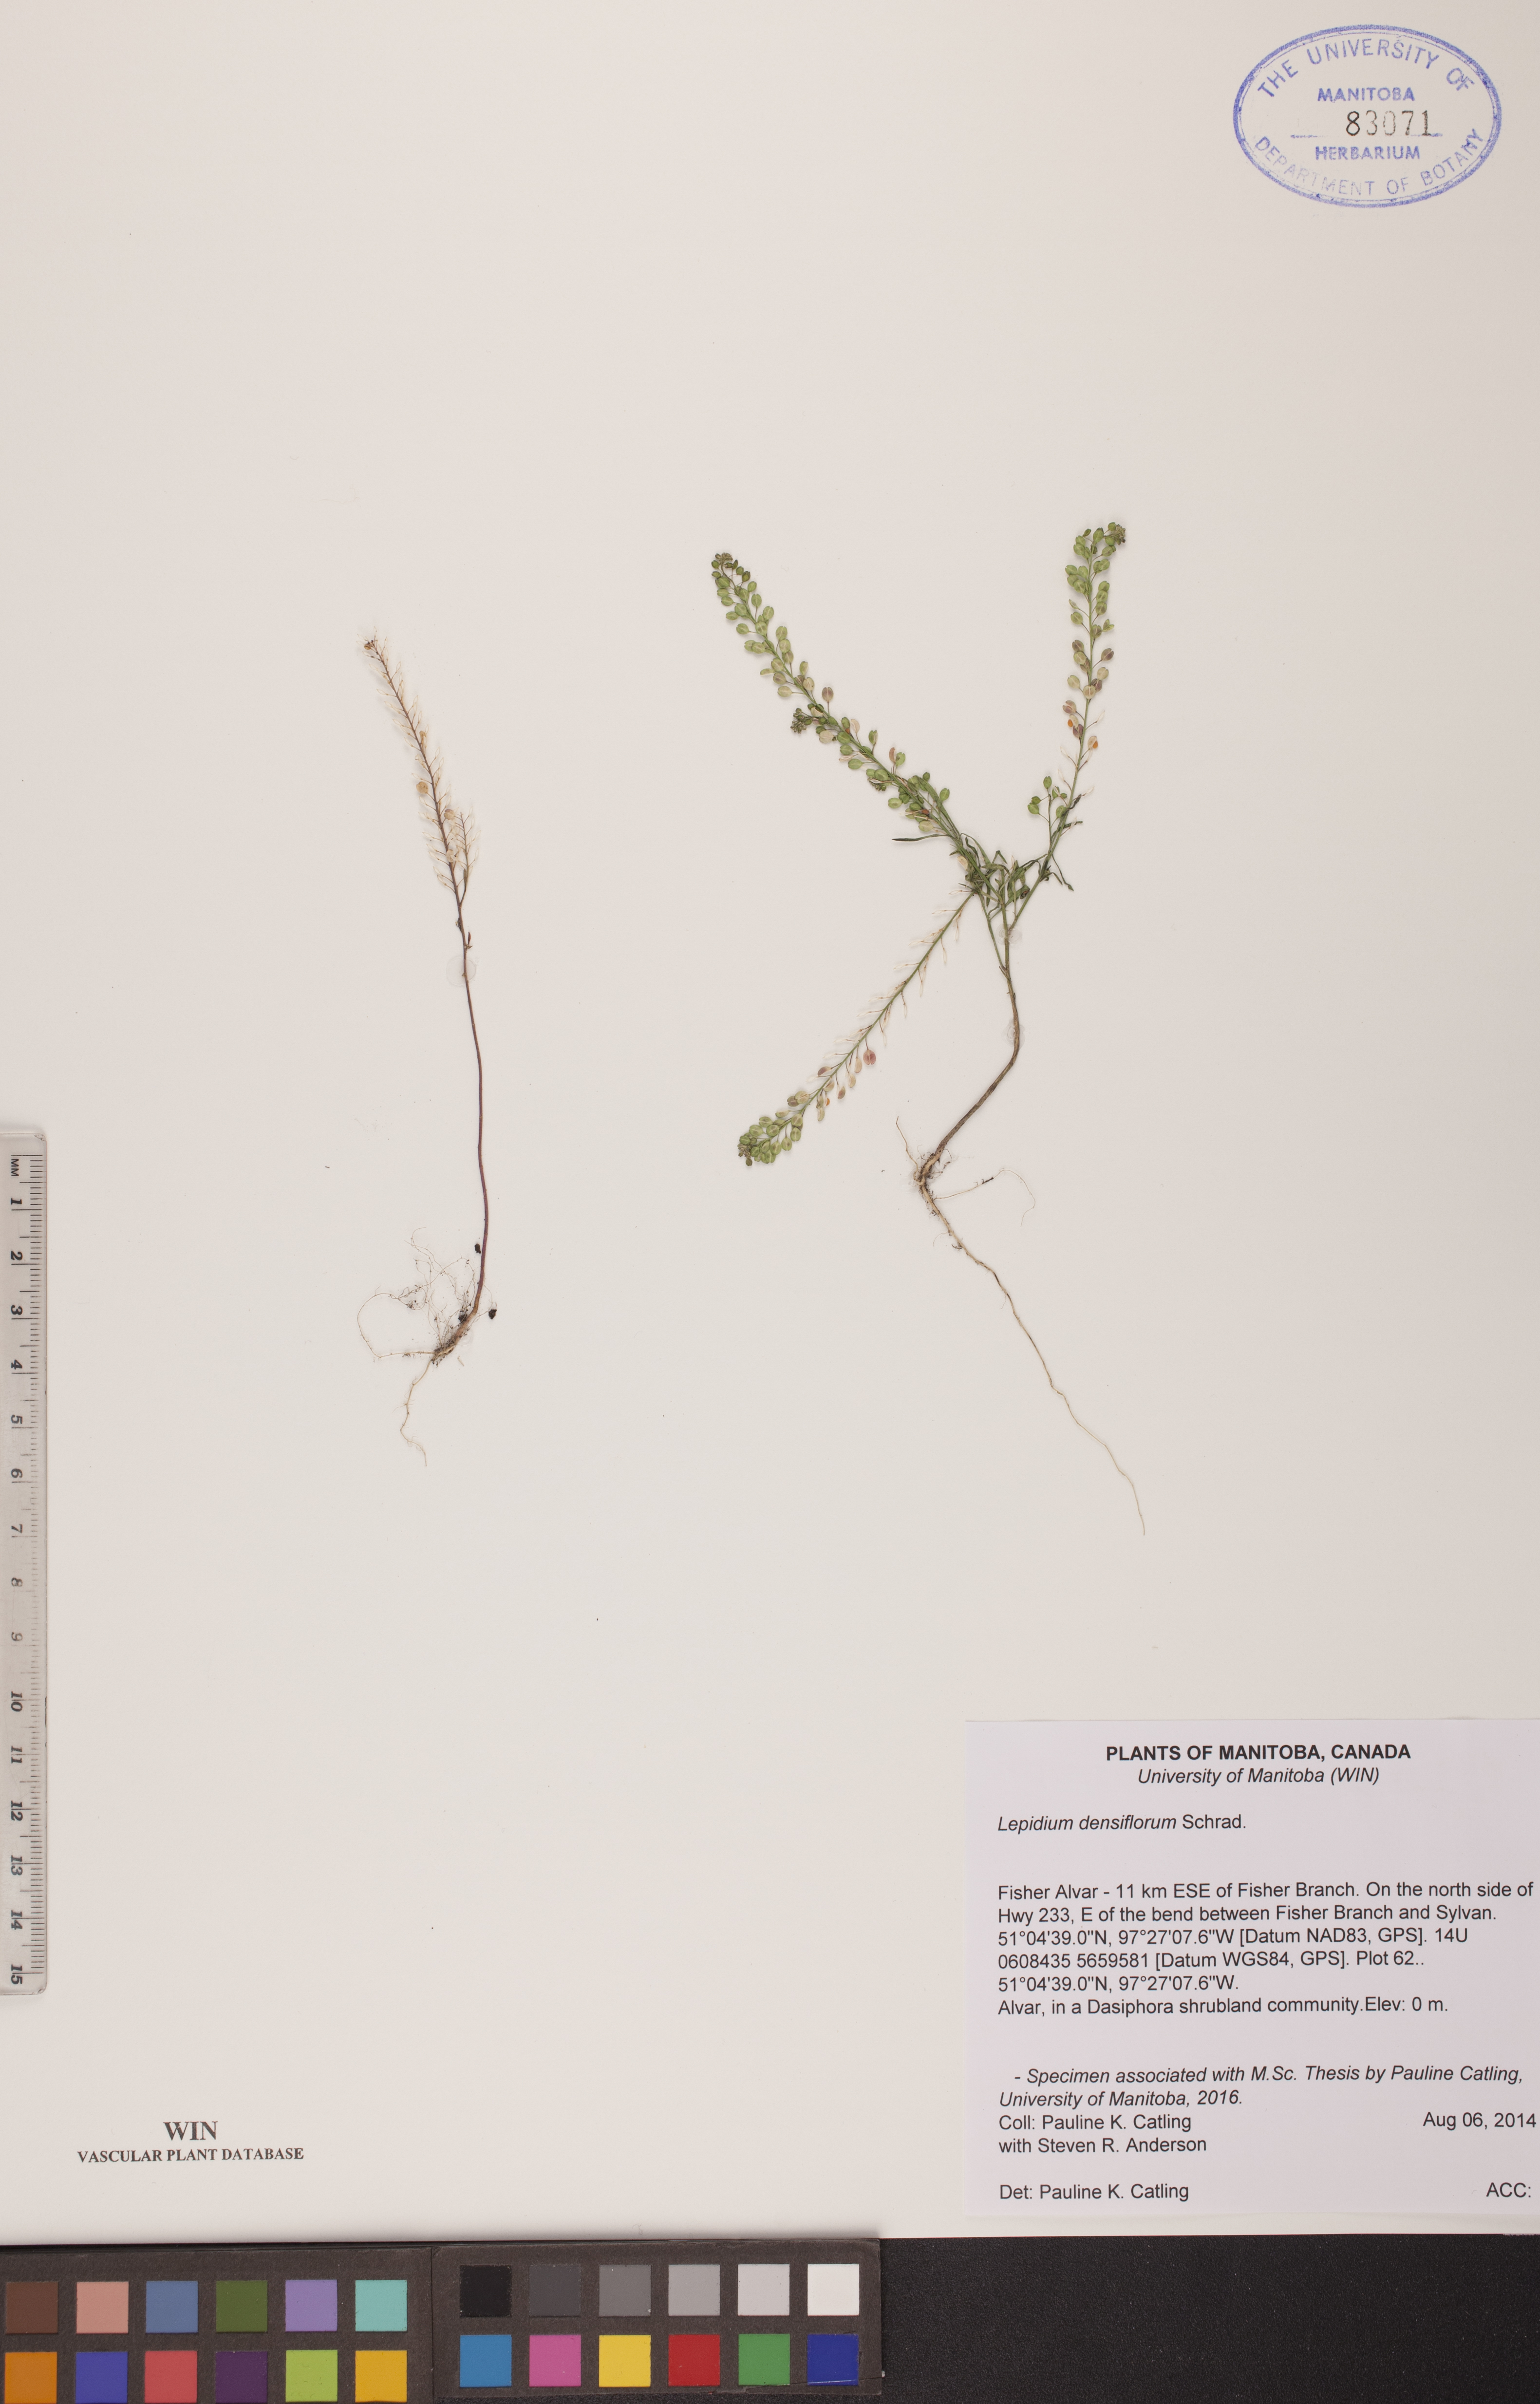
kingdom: Plantae
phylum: Tracheophyta
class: Magnoliopsida
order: Brassicales
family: Brassicaceae
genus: Lepidium
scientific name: Lepidium densiflorum
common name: Miner's pepperwort
